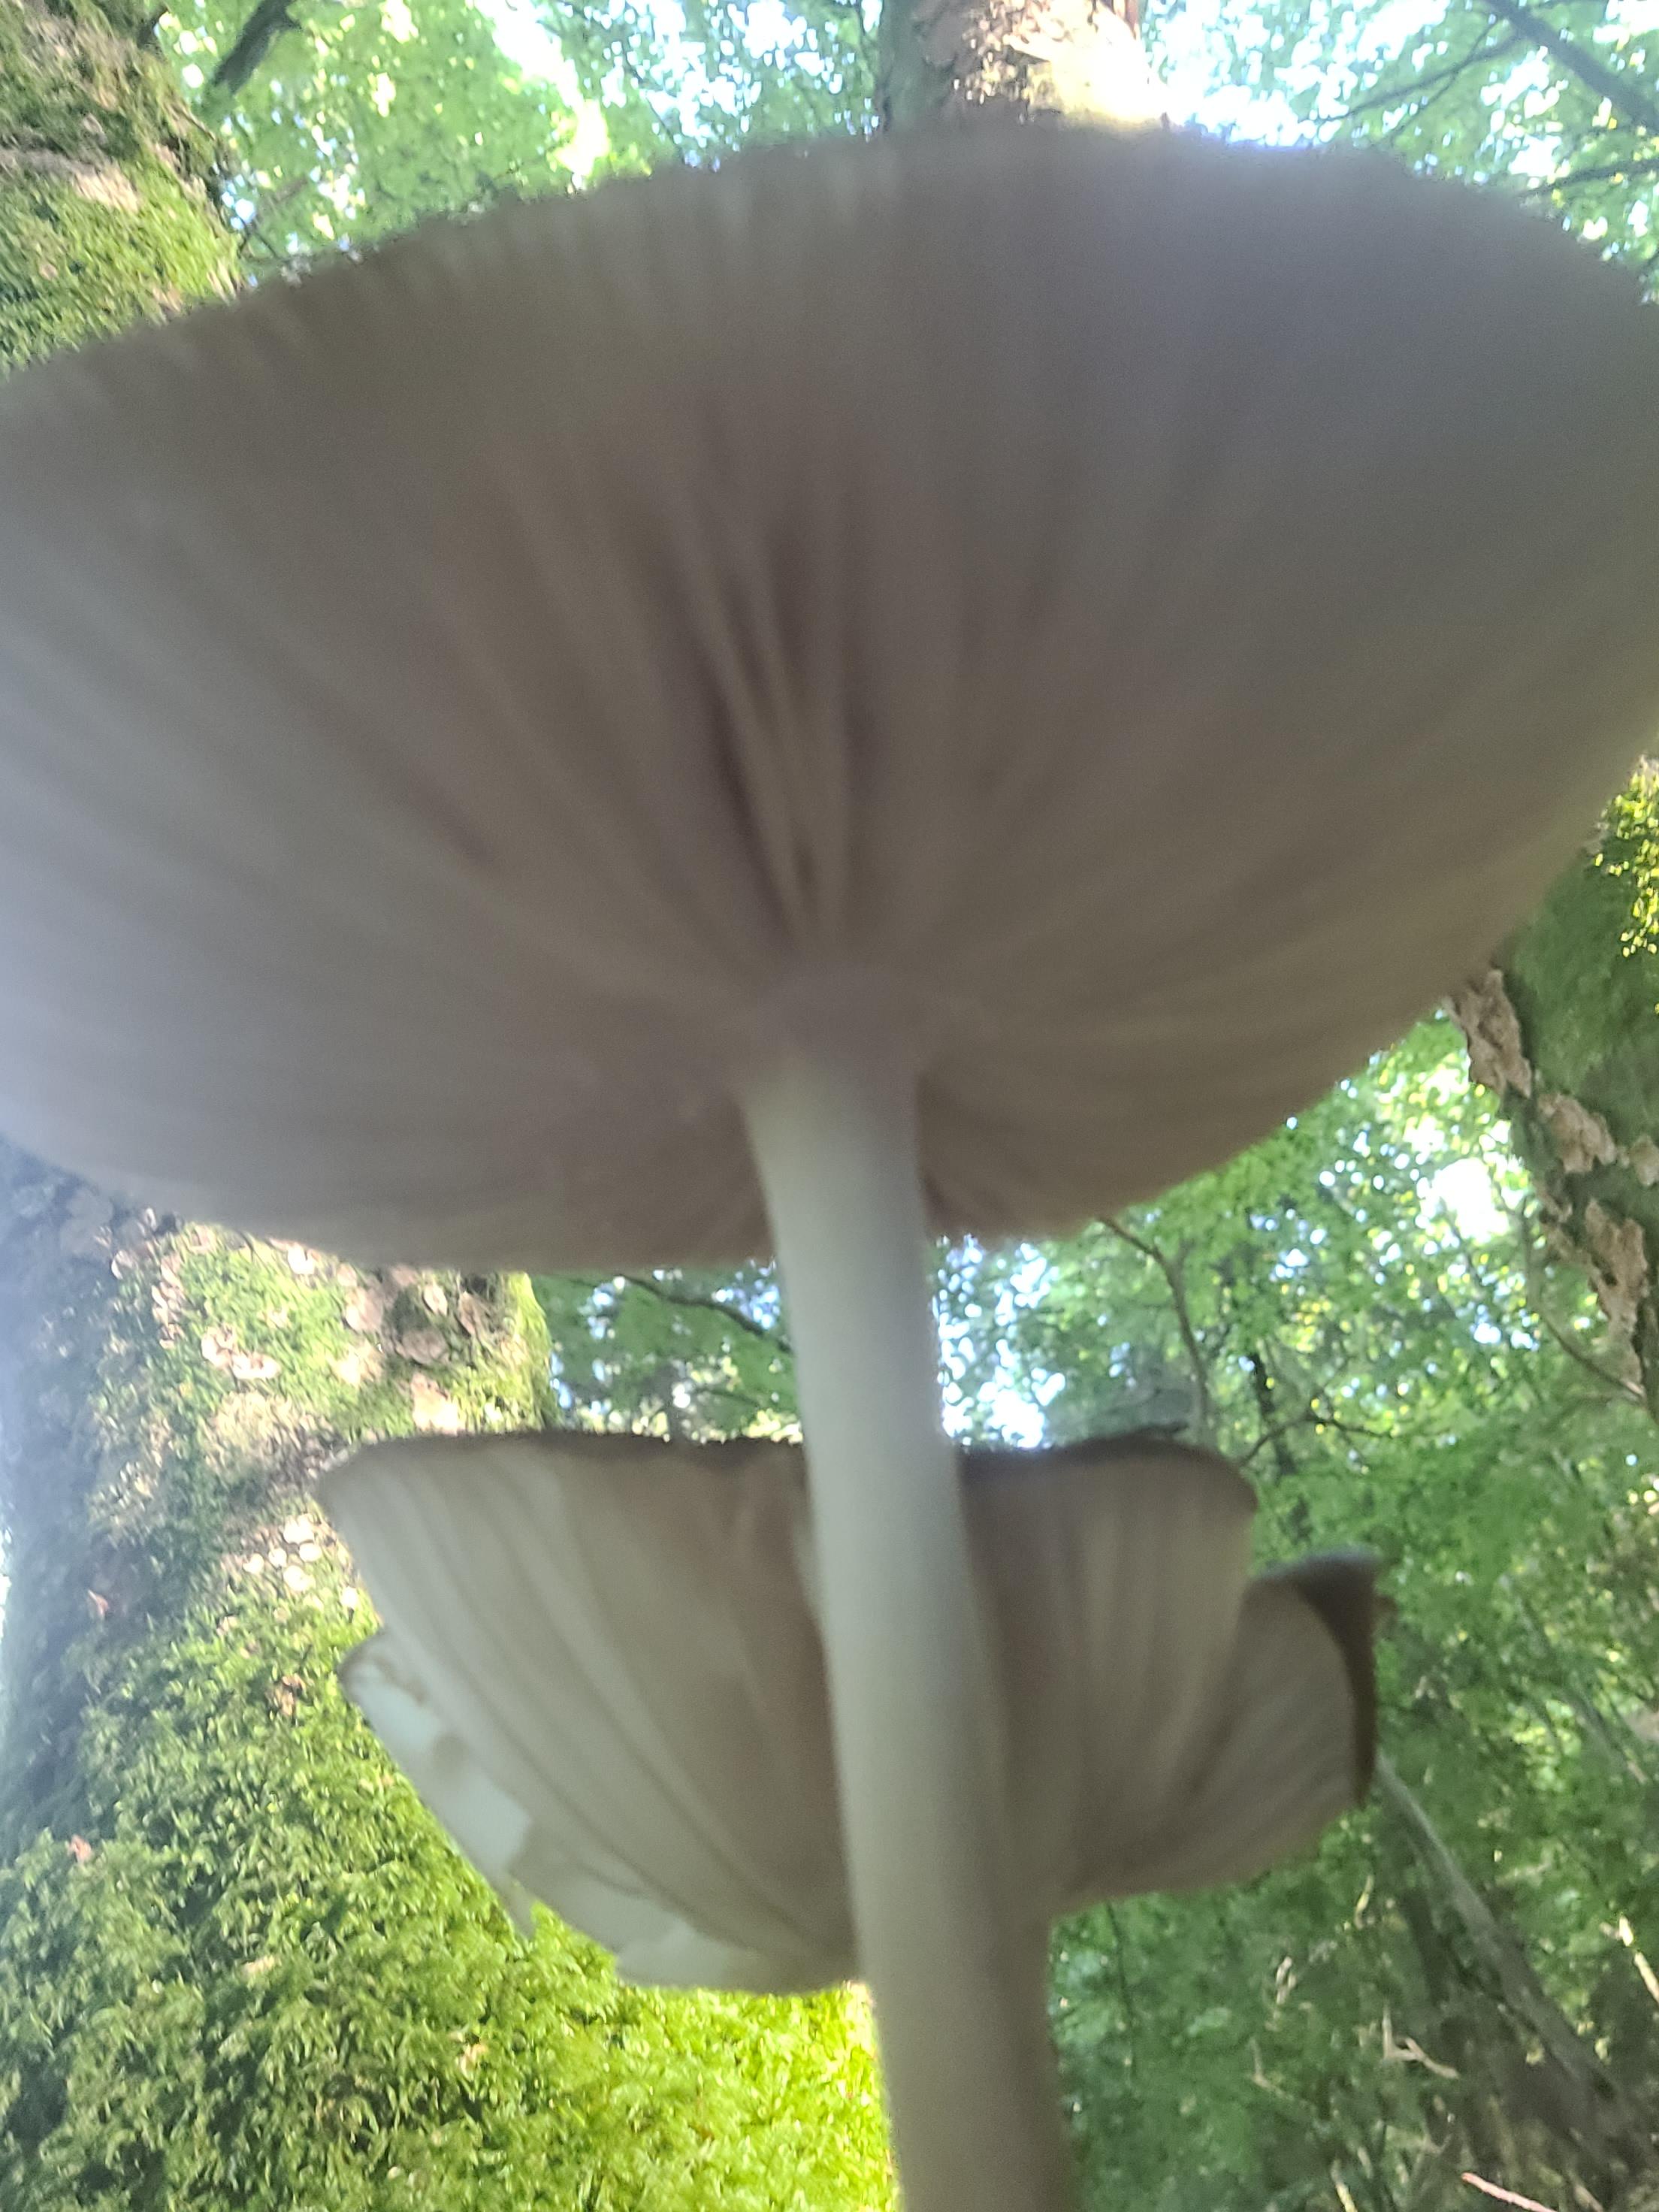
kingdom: Fungi
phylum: Basidiomycota
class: Agaricomycetes
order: Agaricales
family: Physalacriaceae
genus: Hymenopellis
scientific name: Hymenopellis radicata
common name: almindelig pælerodshat
